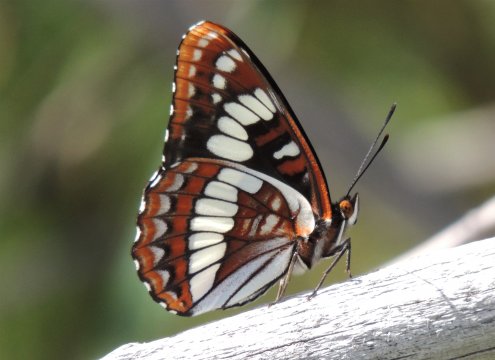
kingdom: Animalia
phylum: Arthropoda
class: Insecta
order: Lepidoptera
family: Nymphalidae
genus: Limenitis
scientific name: Limenitis lorquini
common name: Lorquin's Admiral
